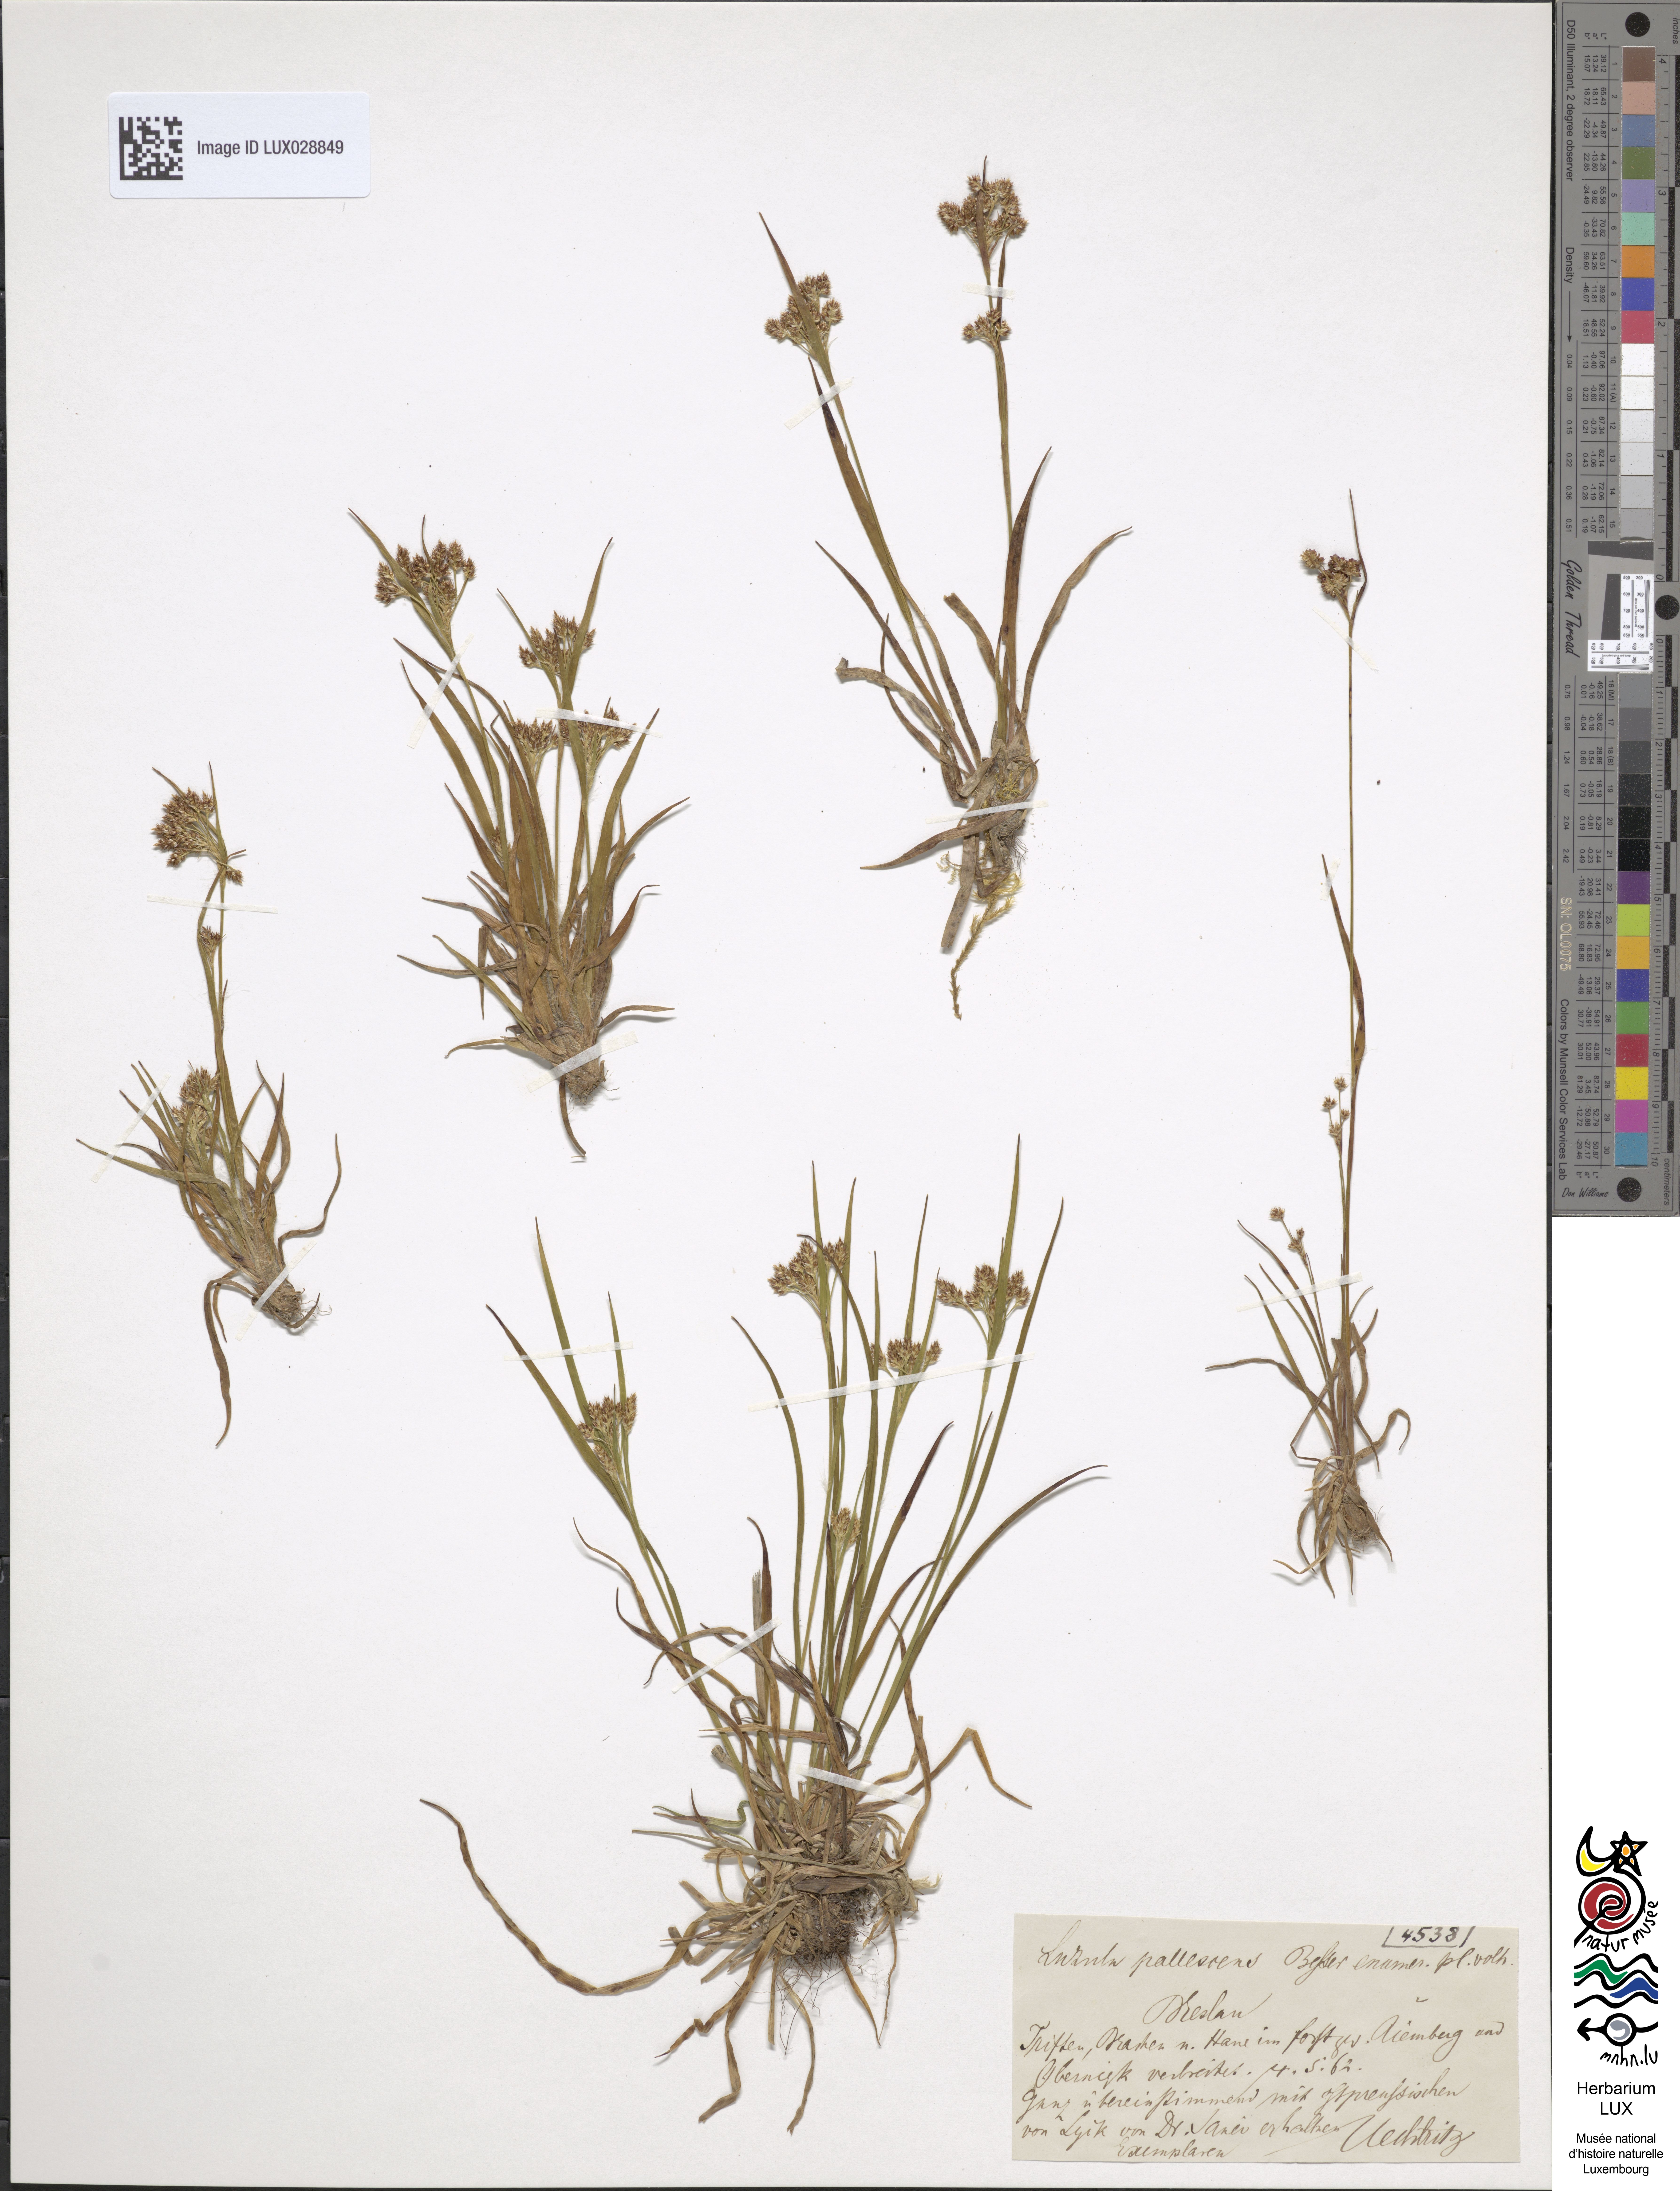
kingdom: Plantae
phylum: Tracheophyta
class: Liliopsida
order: Poales
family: Juncaceae
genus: Luzula
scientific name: Luzula pallescens
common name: Fen wood-rush
